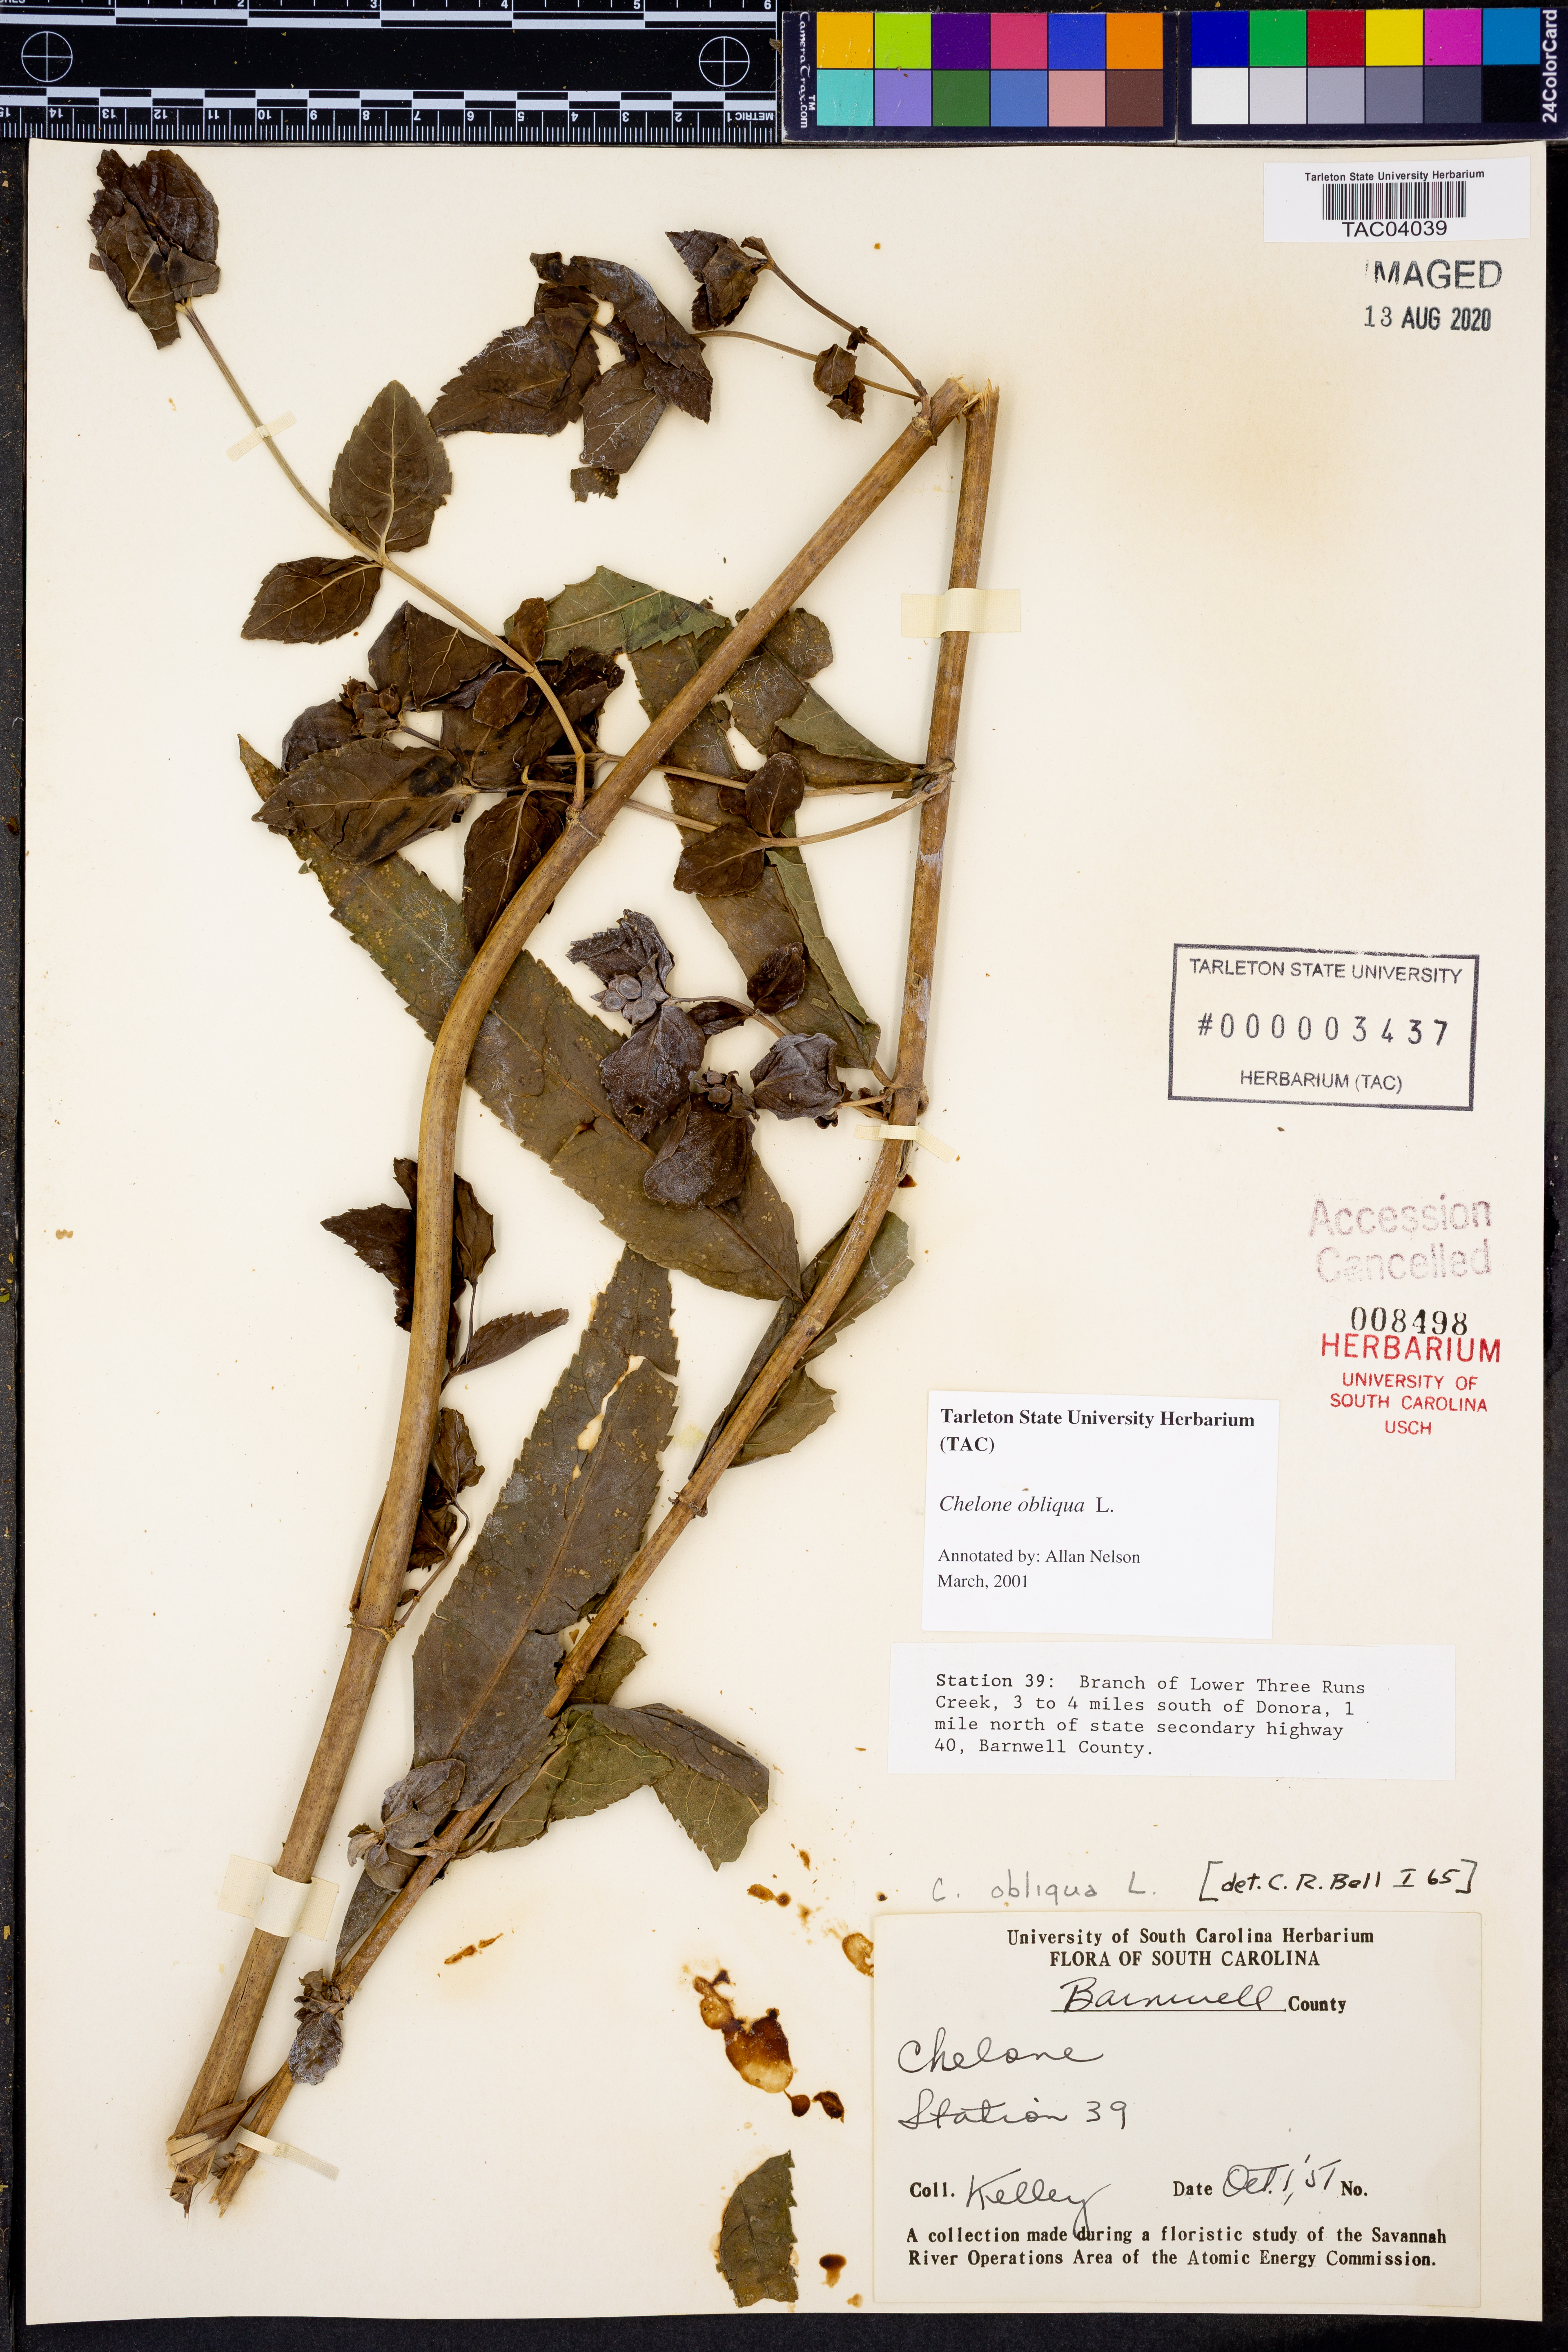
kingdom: Plantae
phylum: Tracheophyta
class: Magnoliopsida
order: Lamiales
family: Plantaginaceae
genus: Chelone
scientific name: Chelone obliqua
